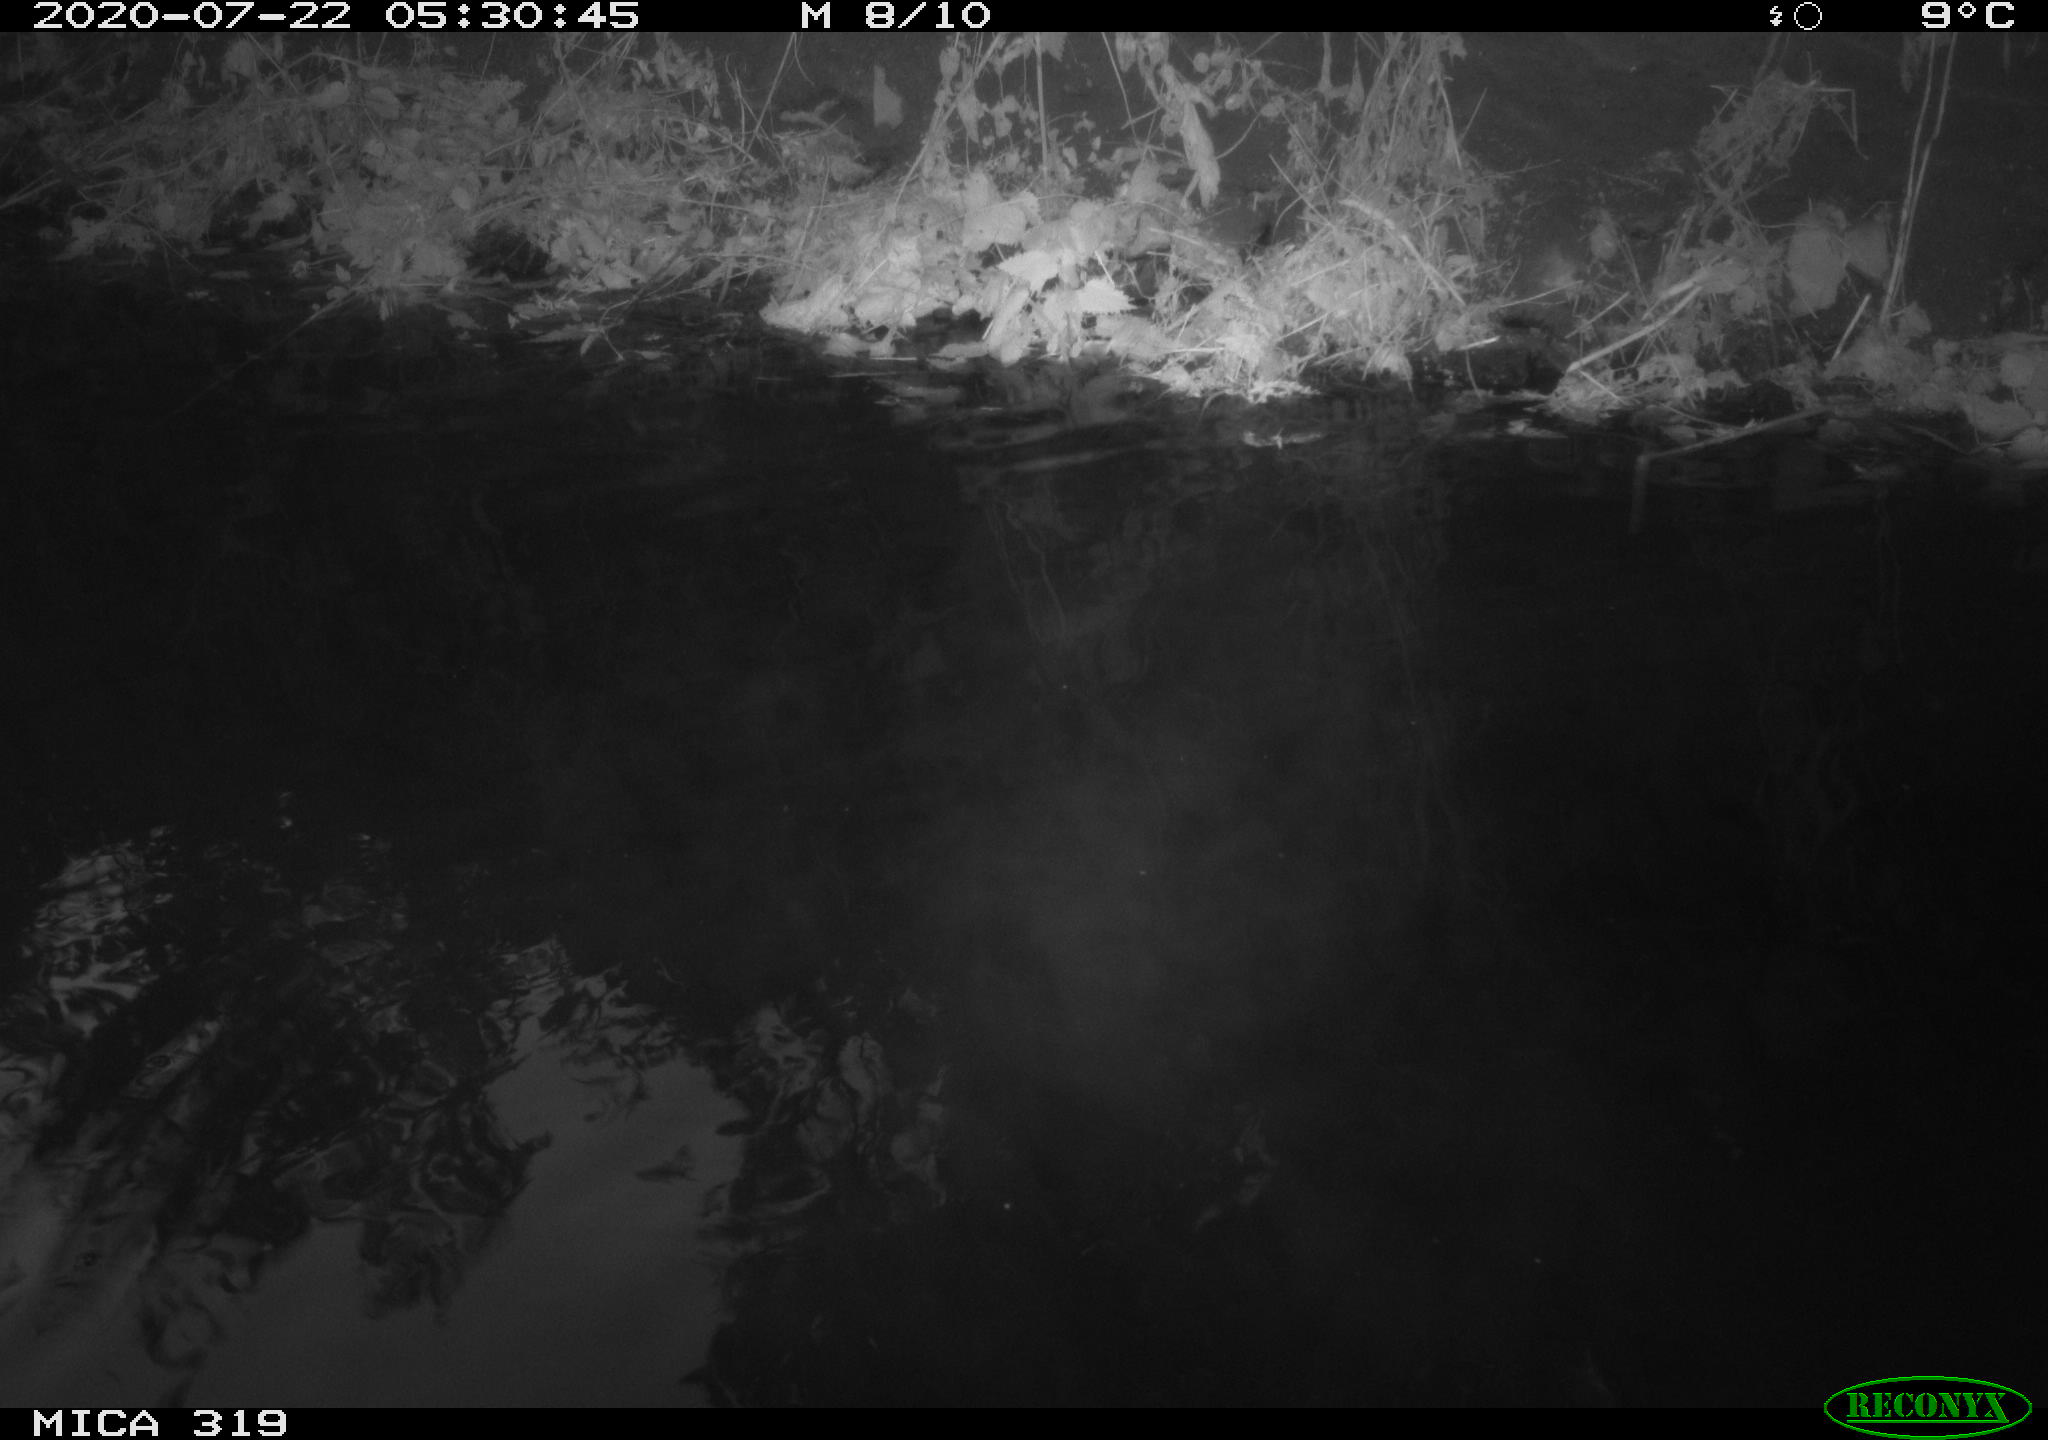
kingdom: Animalia
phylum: Chordata
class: Aves
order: Anseriformes
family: Anatidae
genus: Anas
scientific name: Anas platyrhynchos
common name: Mallard
